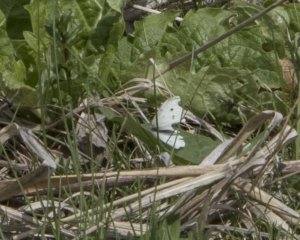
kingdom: Animalia
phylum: Arthropoda
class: Insecta
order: Lepidoptera
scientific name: Lepidoptera
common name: Butterflies
